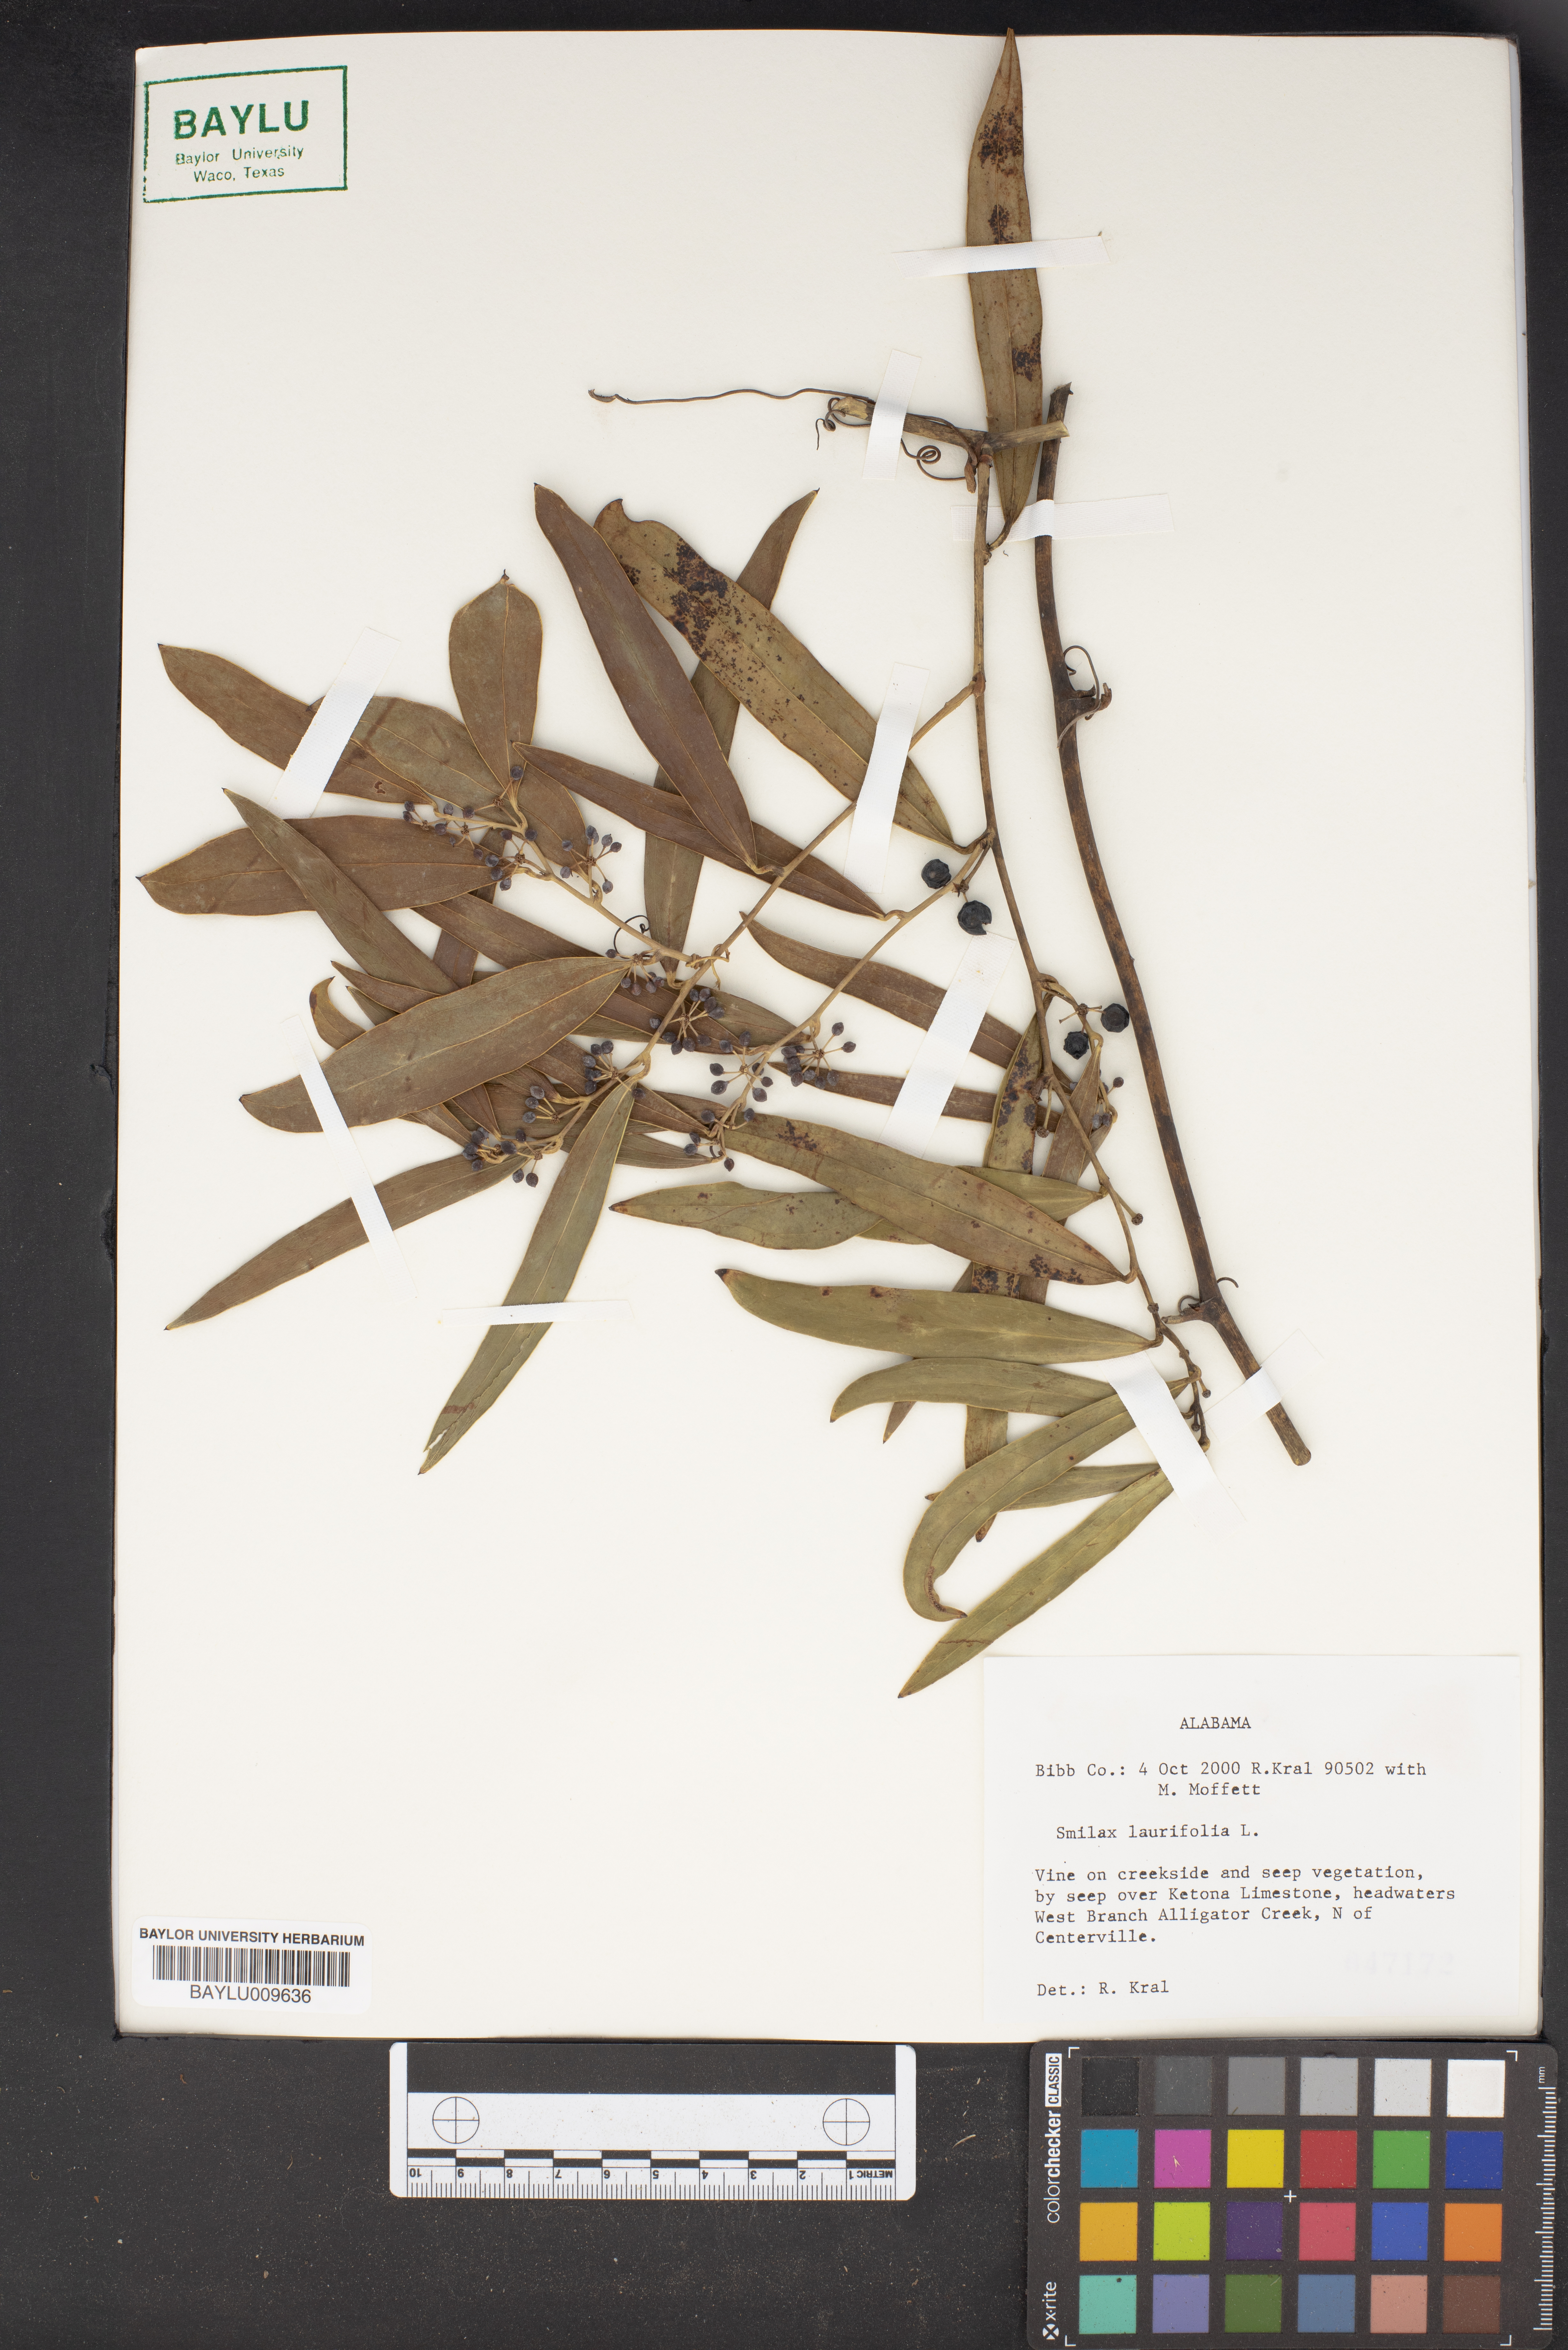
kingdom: Plantae
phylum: Tracheophyta
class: Liliopsida
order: Liliales
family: Smilacaceae
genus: Smilax
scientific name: Smilax laurifolia
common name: Bamboovine
